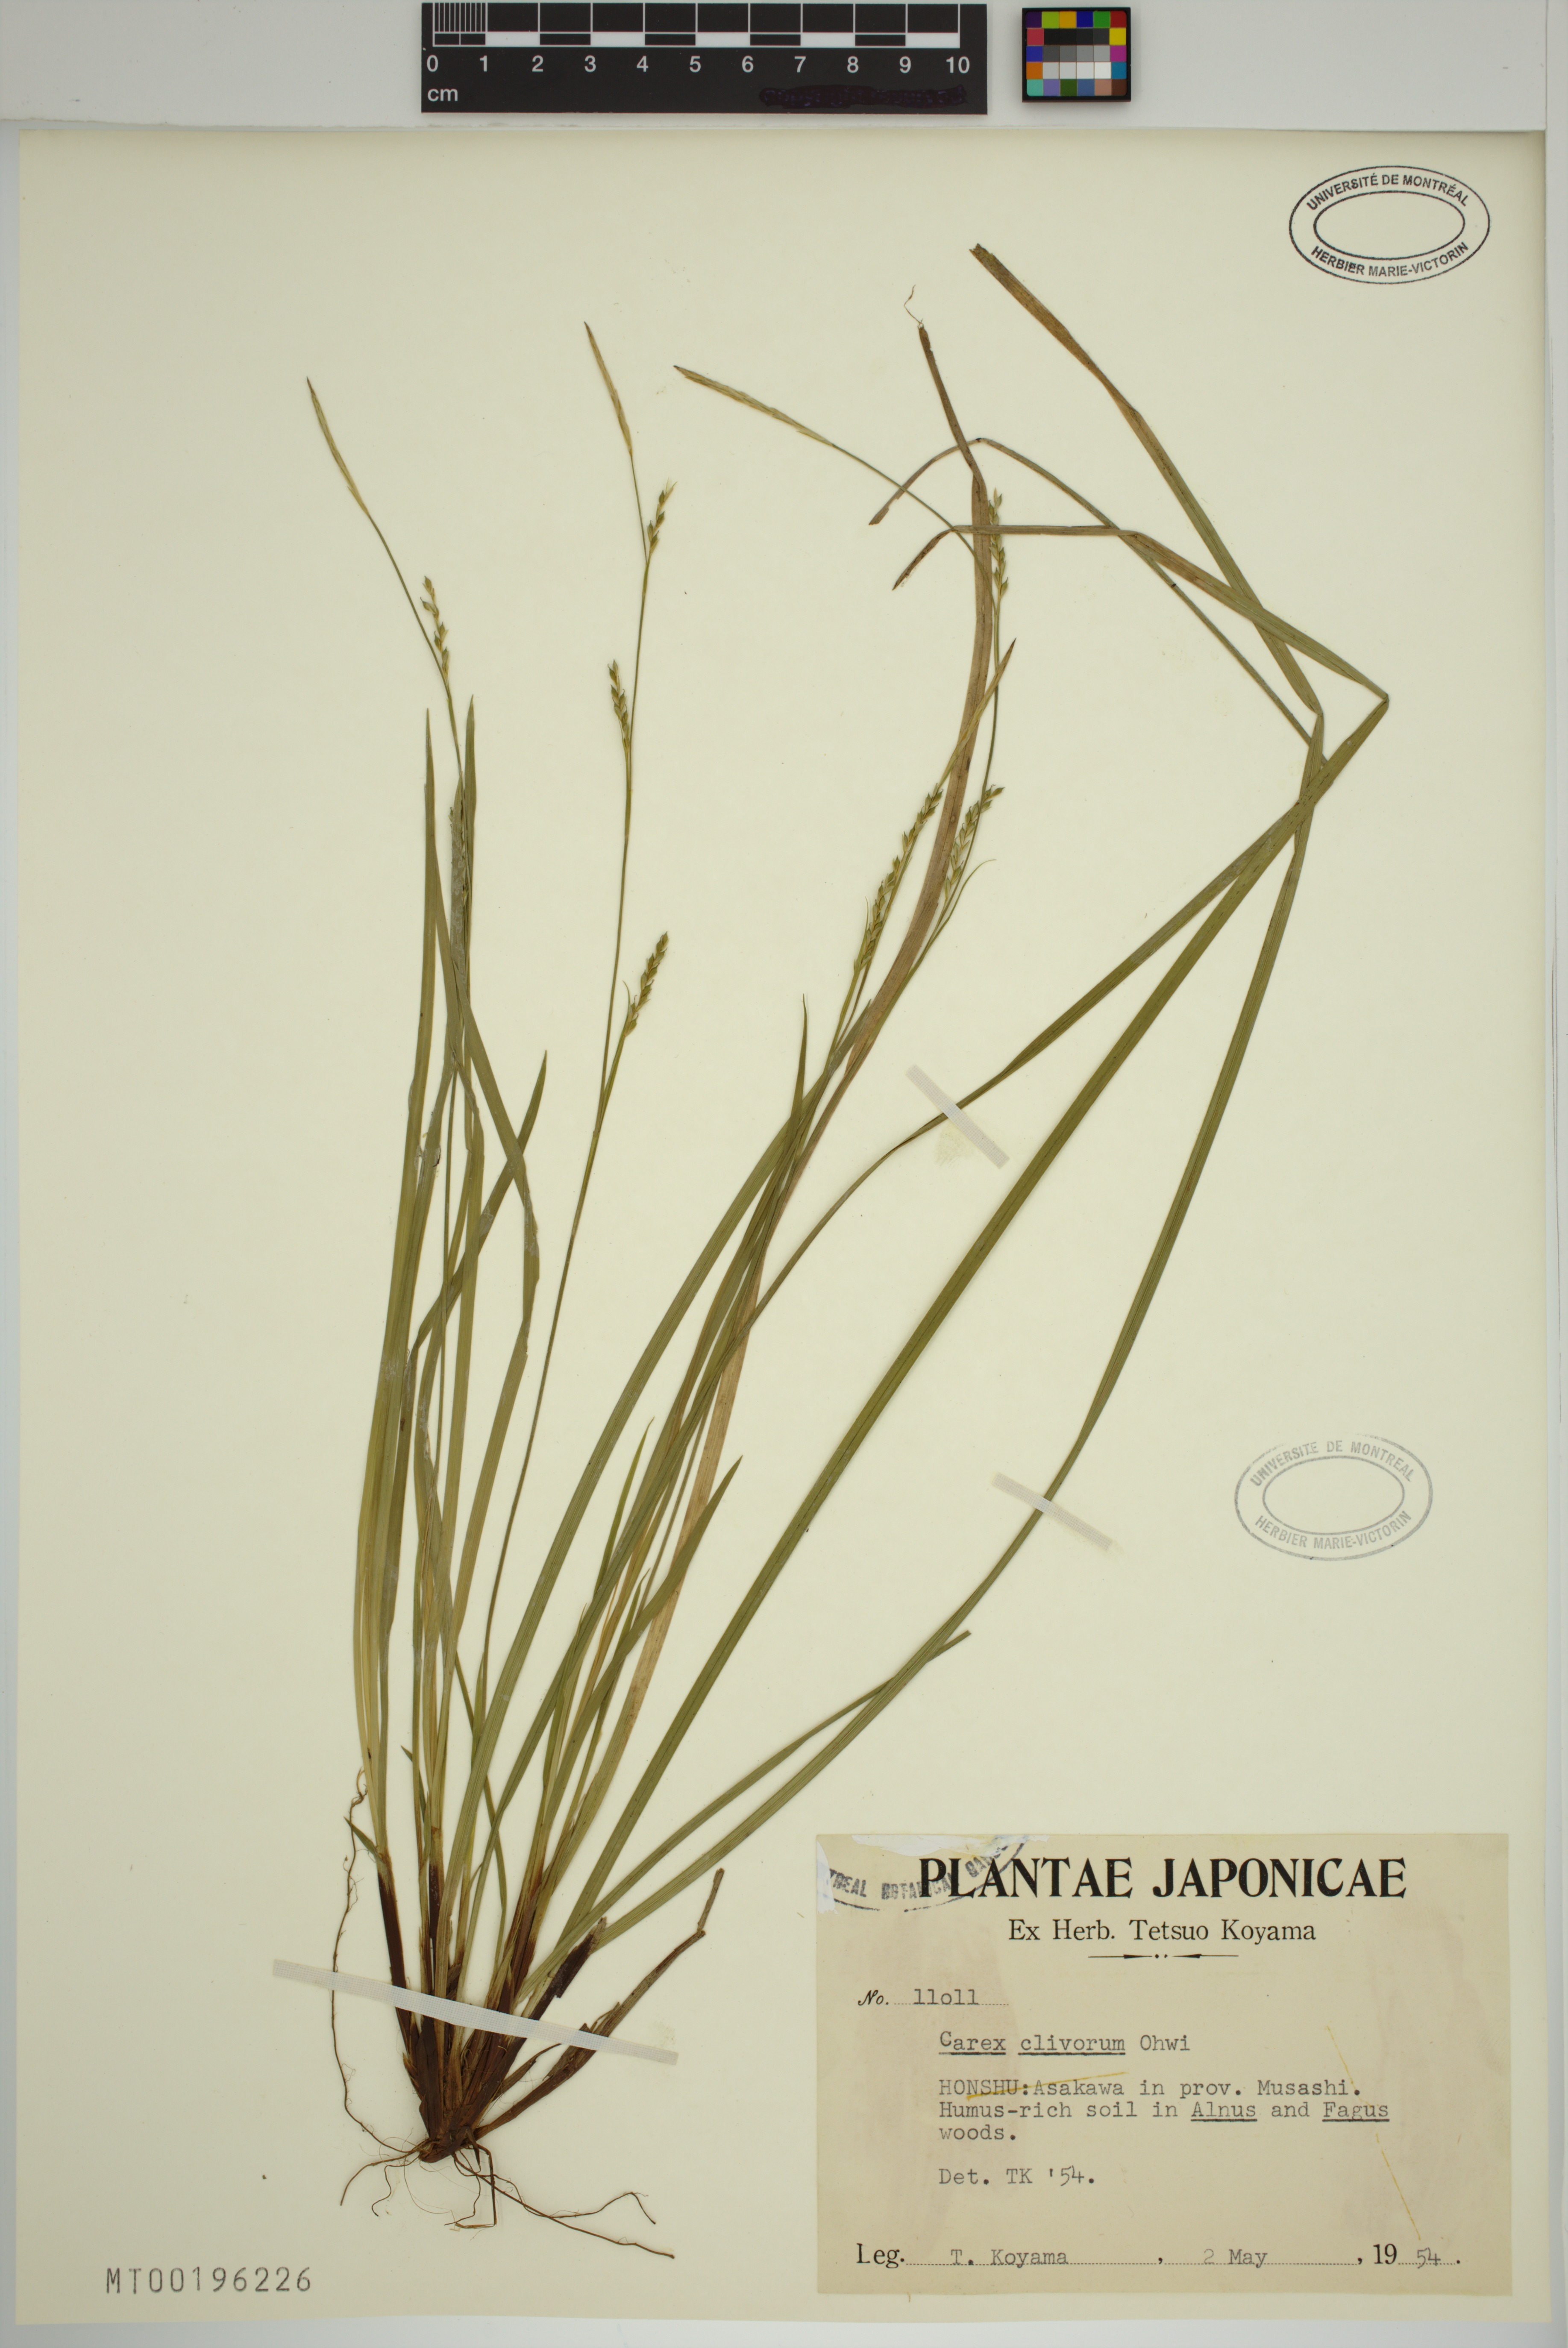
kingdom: Plantae
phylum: Tracheophyta
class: Liliopsida
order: Poales
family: Cyperaceae
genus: Carex
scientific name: Carex clivorum
